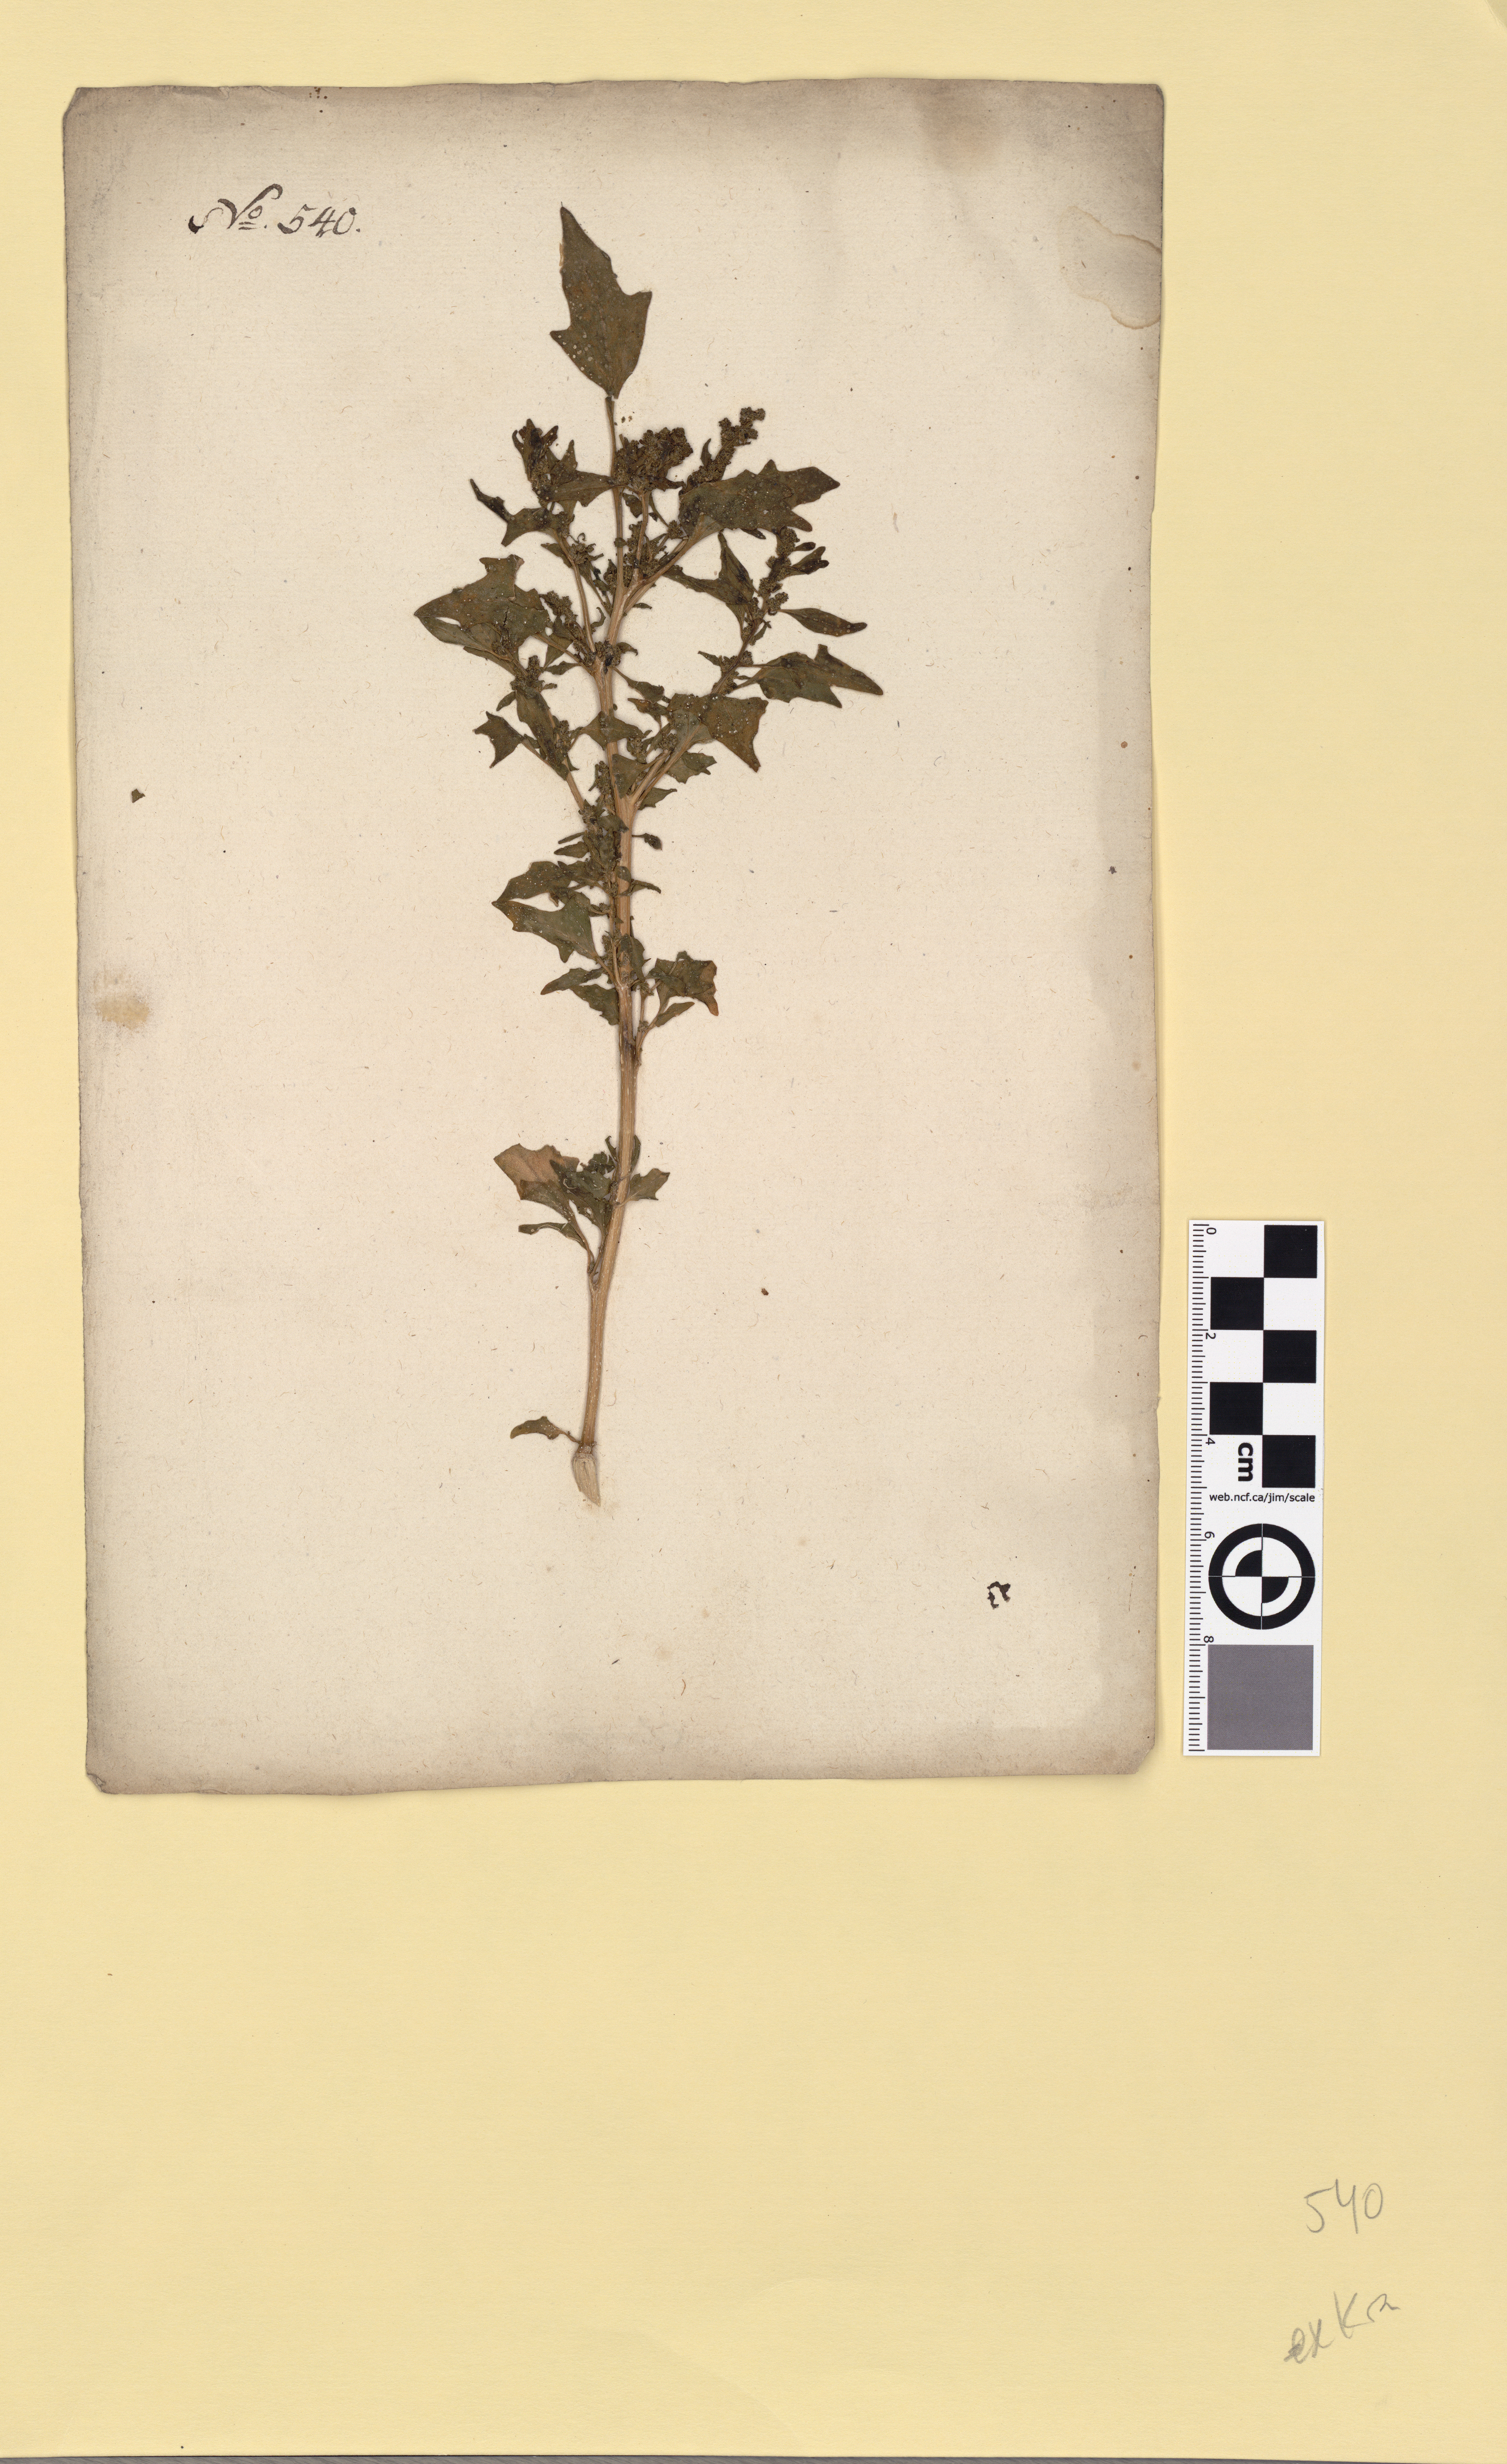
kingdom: Plantae
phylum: Tracheophyta
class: Magnoliopsida
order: Caryophyllales
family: Amaranthaceae
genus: Oxybasis
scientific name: Oxybasis rubra
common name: Red goosefoot
